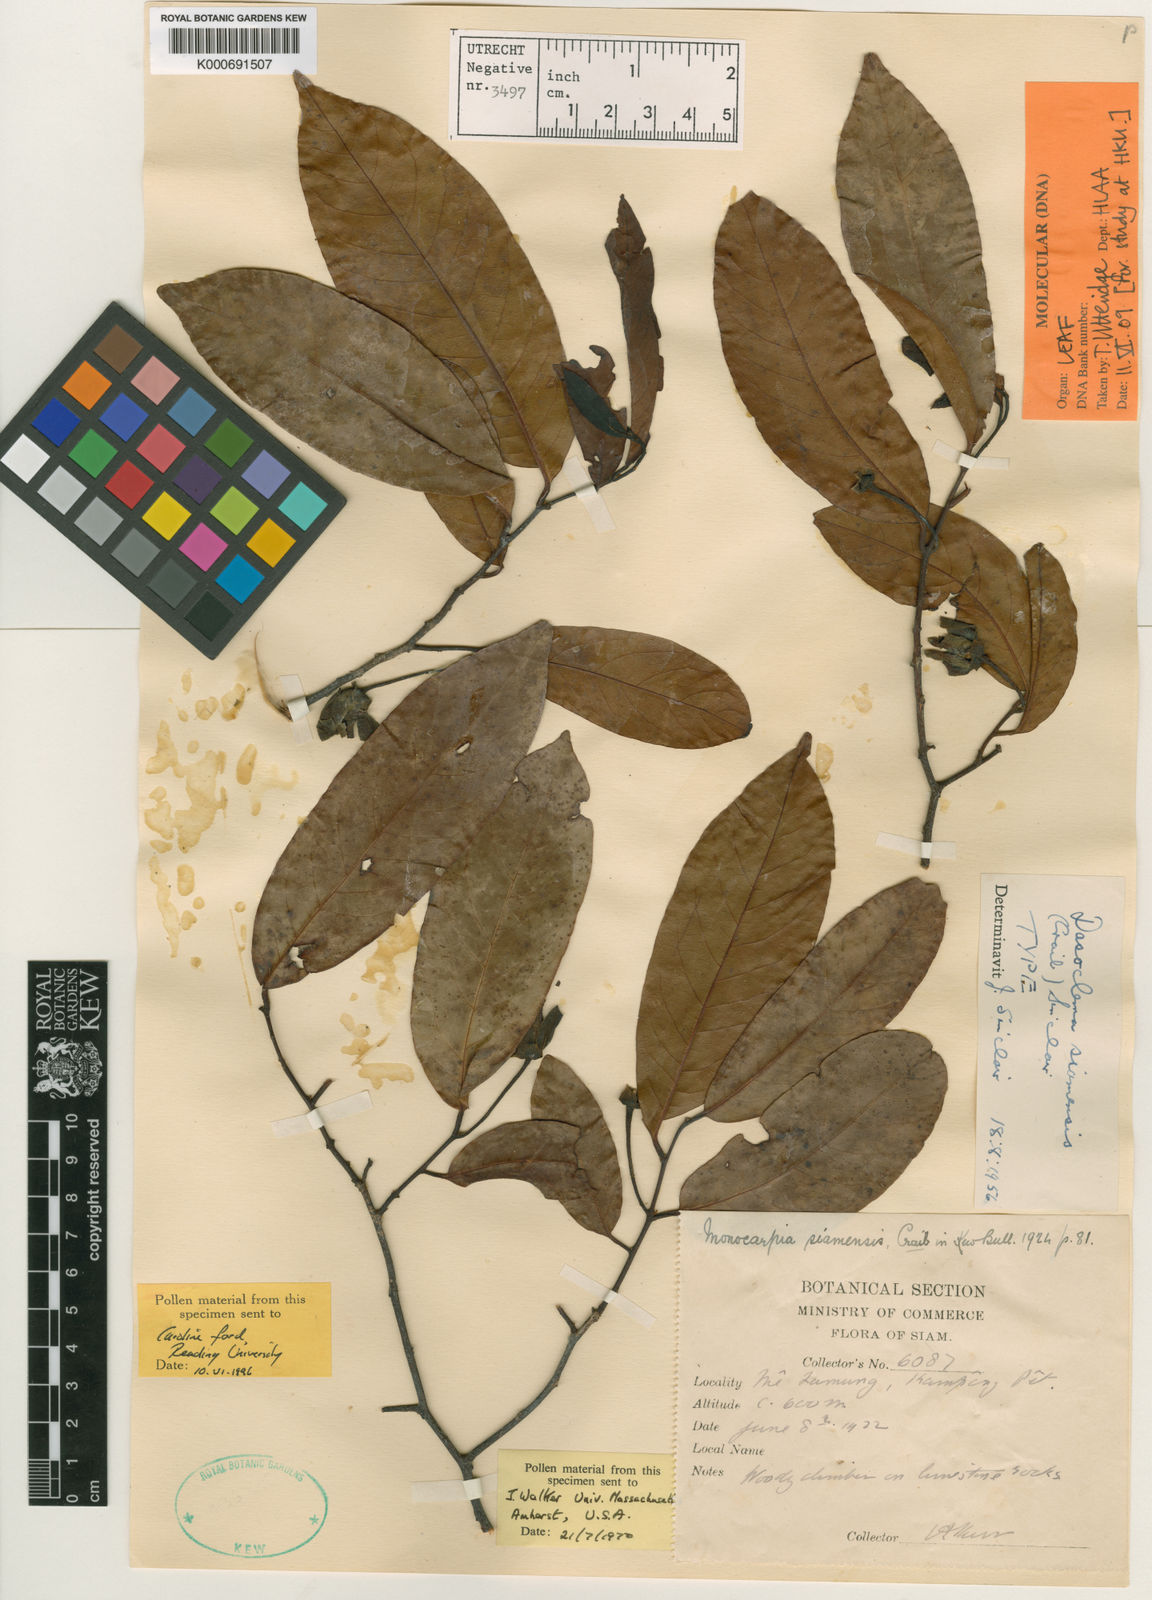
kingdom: Plantae
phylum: Tracheophyta
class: Magnoliopsida
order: Magnoliales
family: Annonaceae
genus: Uvaria
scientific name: Uvaria dasoclema
